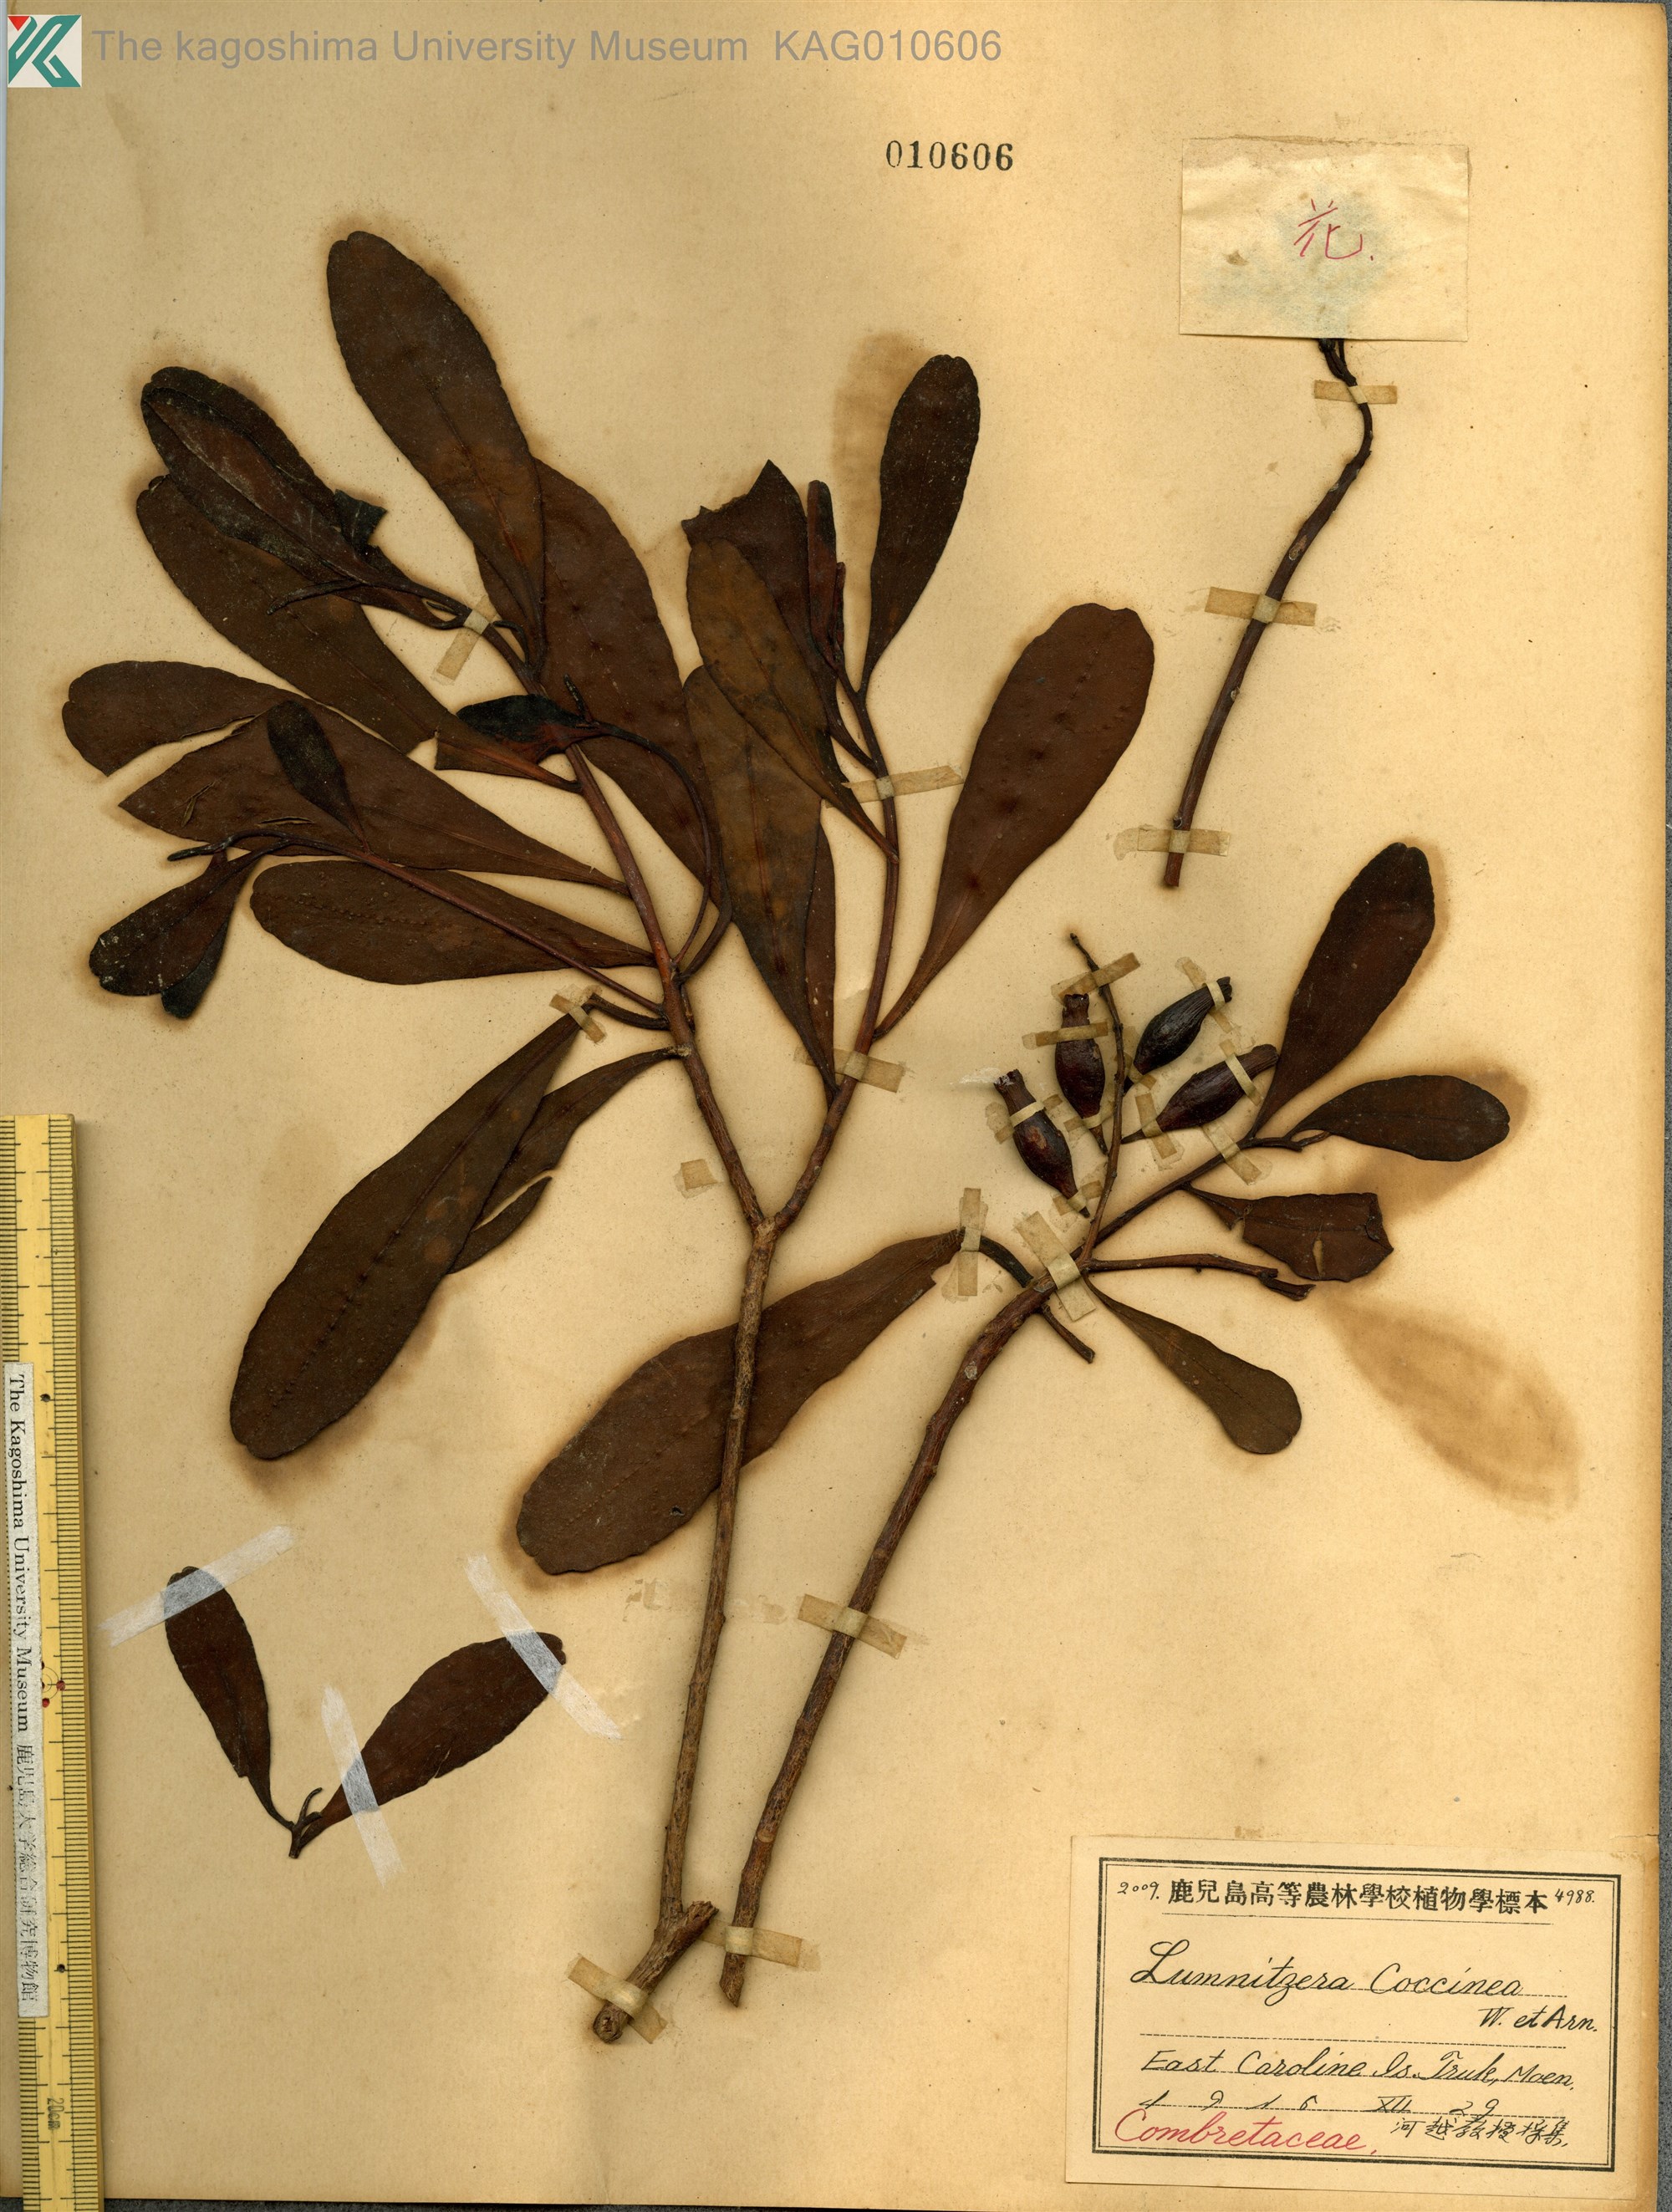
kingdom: Plantae
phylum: Tracheophyta
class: Magnoliopsida
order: Myrtales
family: Combretaceae
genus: Lumnitzera
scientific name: Lumnitzera racemosa
